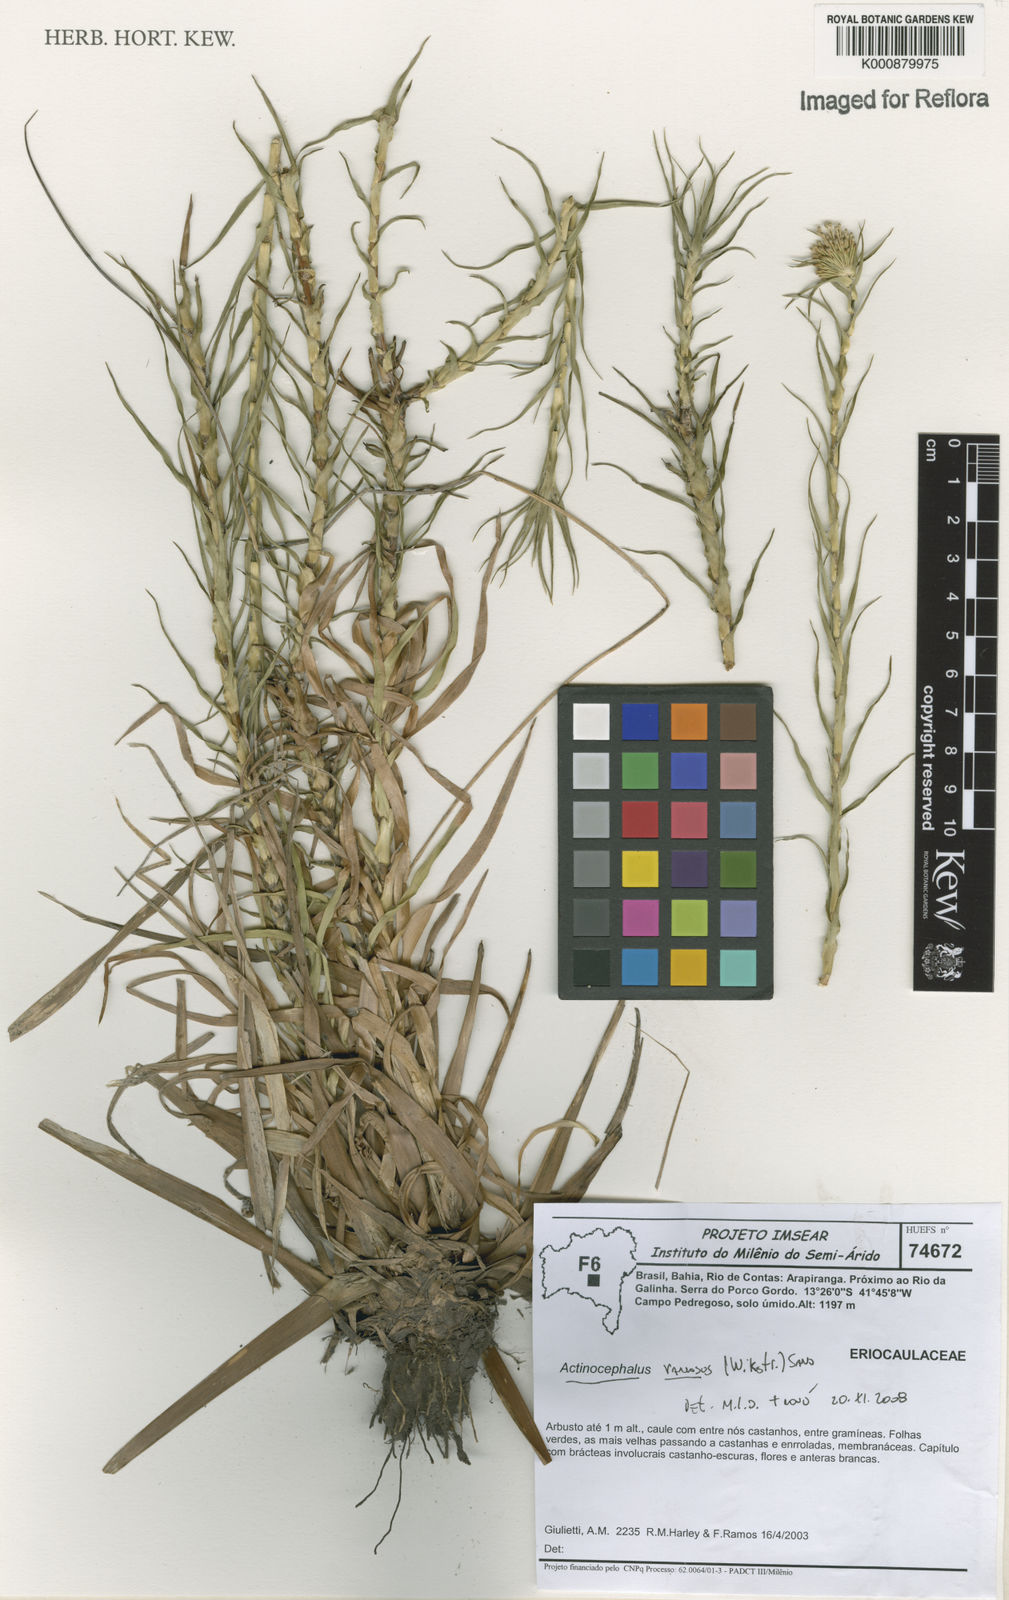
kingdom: Plantae
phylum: Tracheophyta
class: Liliopsida
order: Poales
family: Eriocaulaceae
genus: Paepalanthus
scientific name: Paepalanthus ramosus
